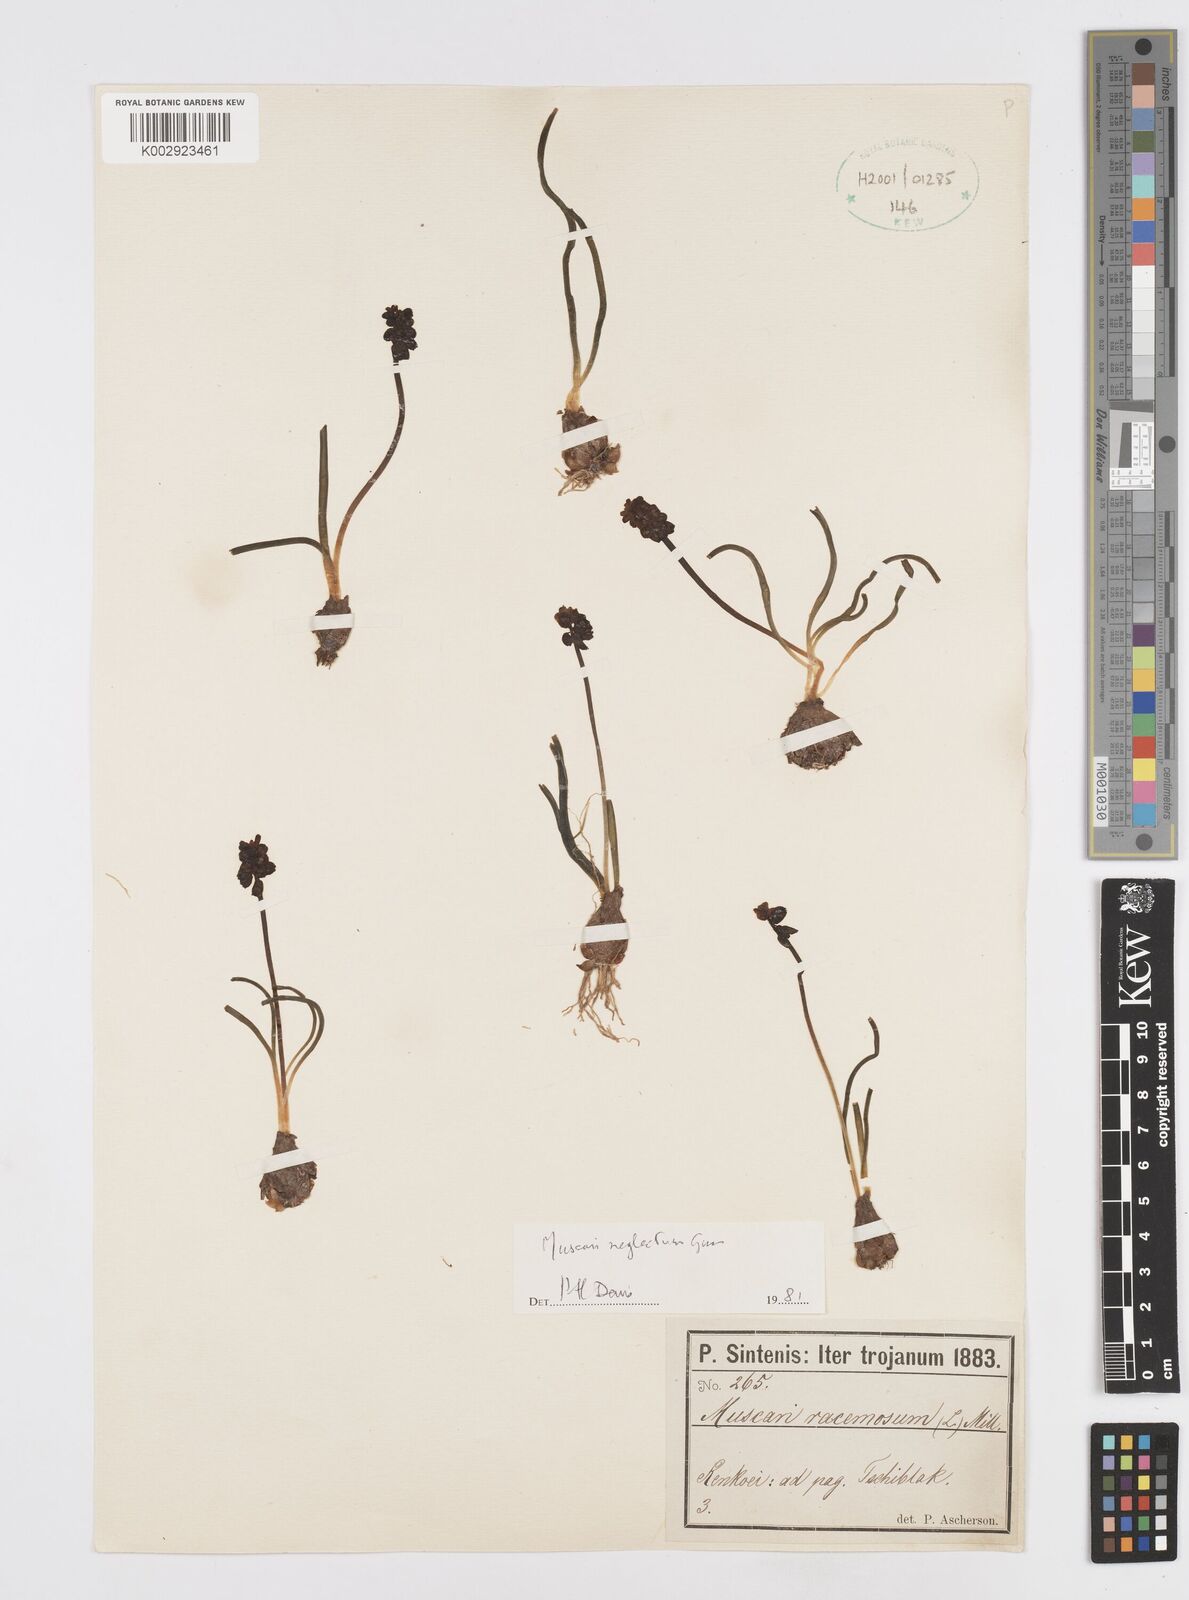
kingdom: Plantae
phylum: Tracheophyta
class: Liliopsida
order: Asparagales
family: Asparagaceae
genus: Muscari
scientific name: Muscari neglectum
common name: Grape-hyacinth
